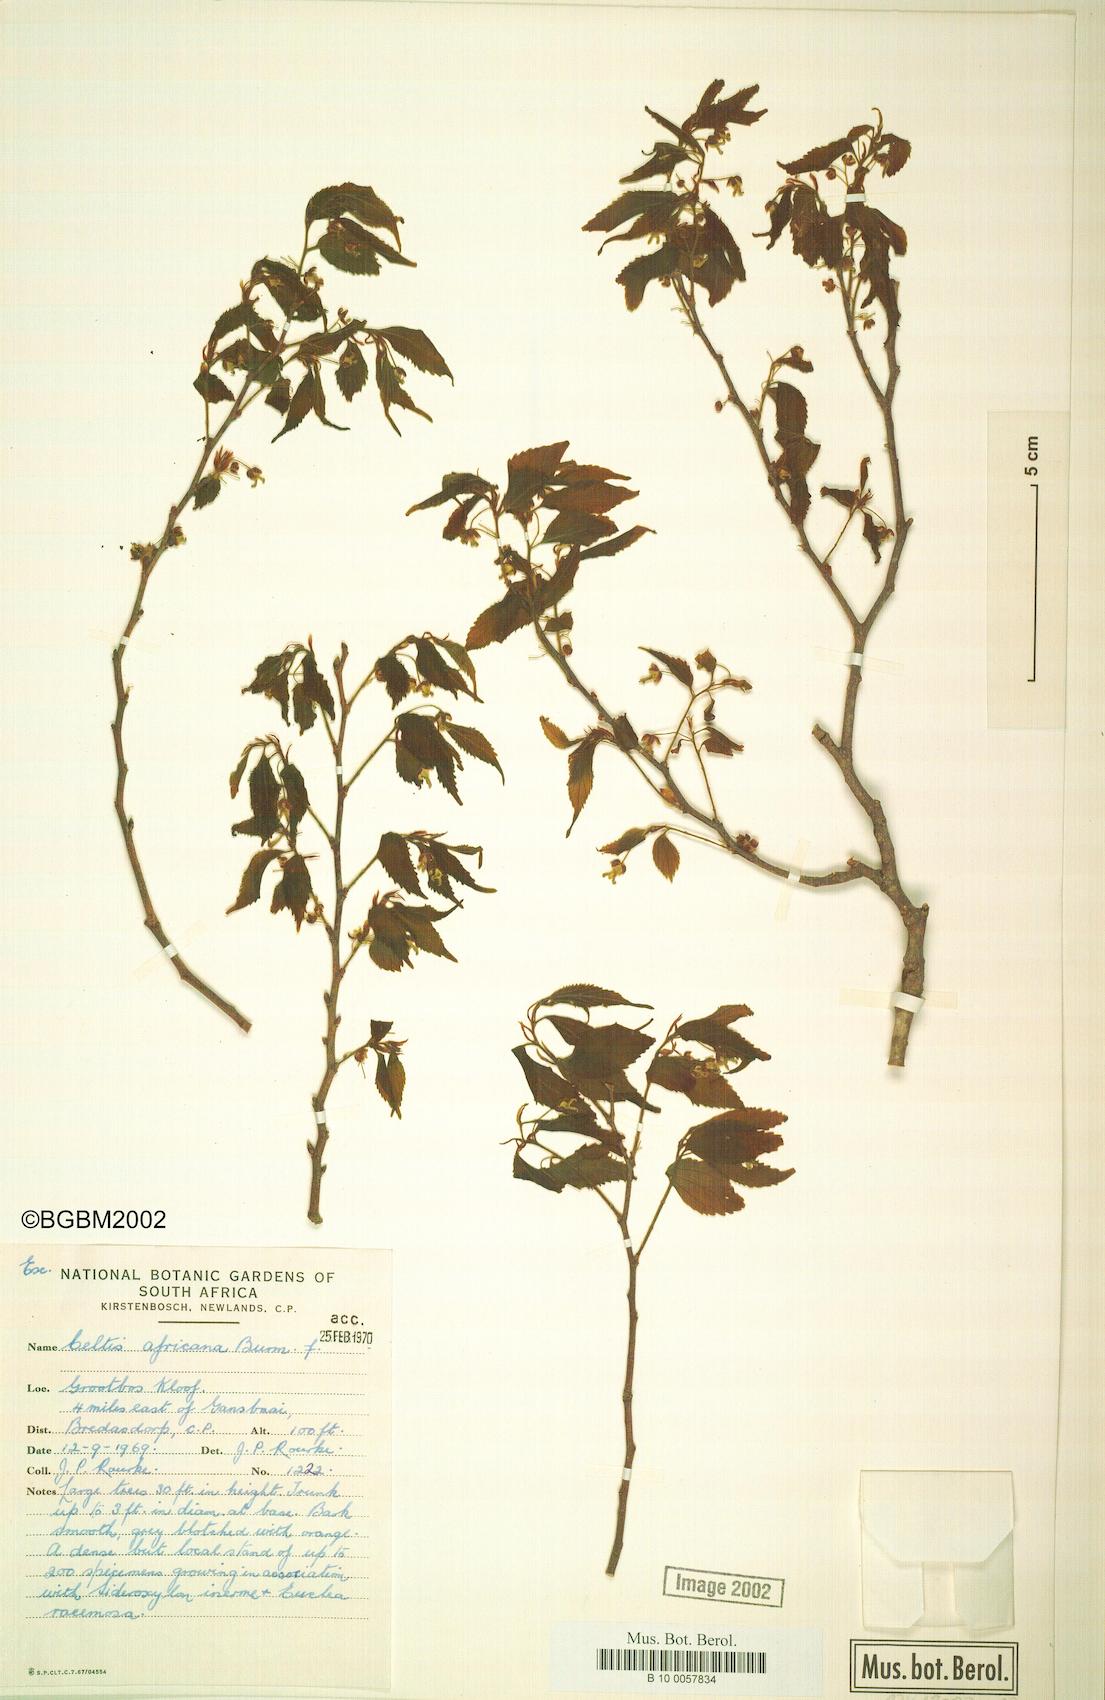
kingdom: Plantae
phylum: Tracheophyta
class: Magnoliopsida
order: Rosales
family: Cannabaceae
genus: Celtis
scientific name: Celtis africana
